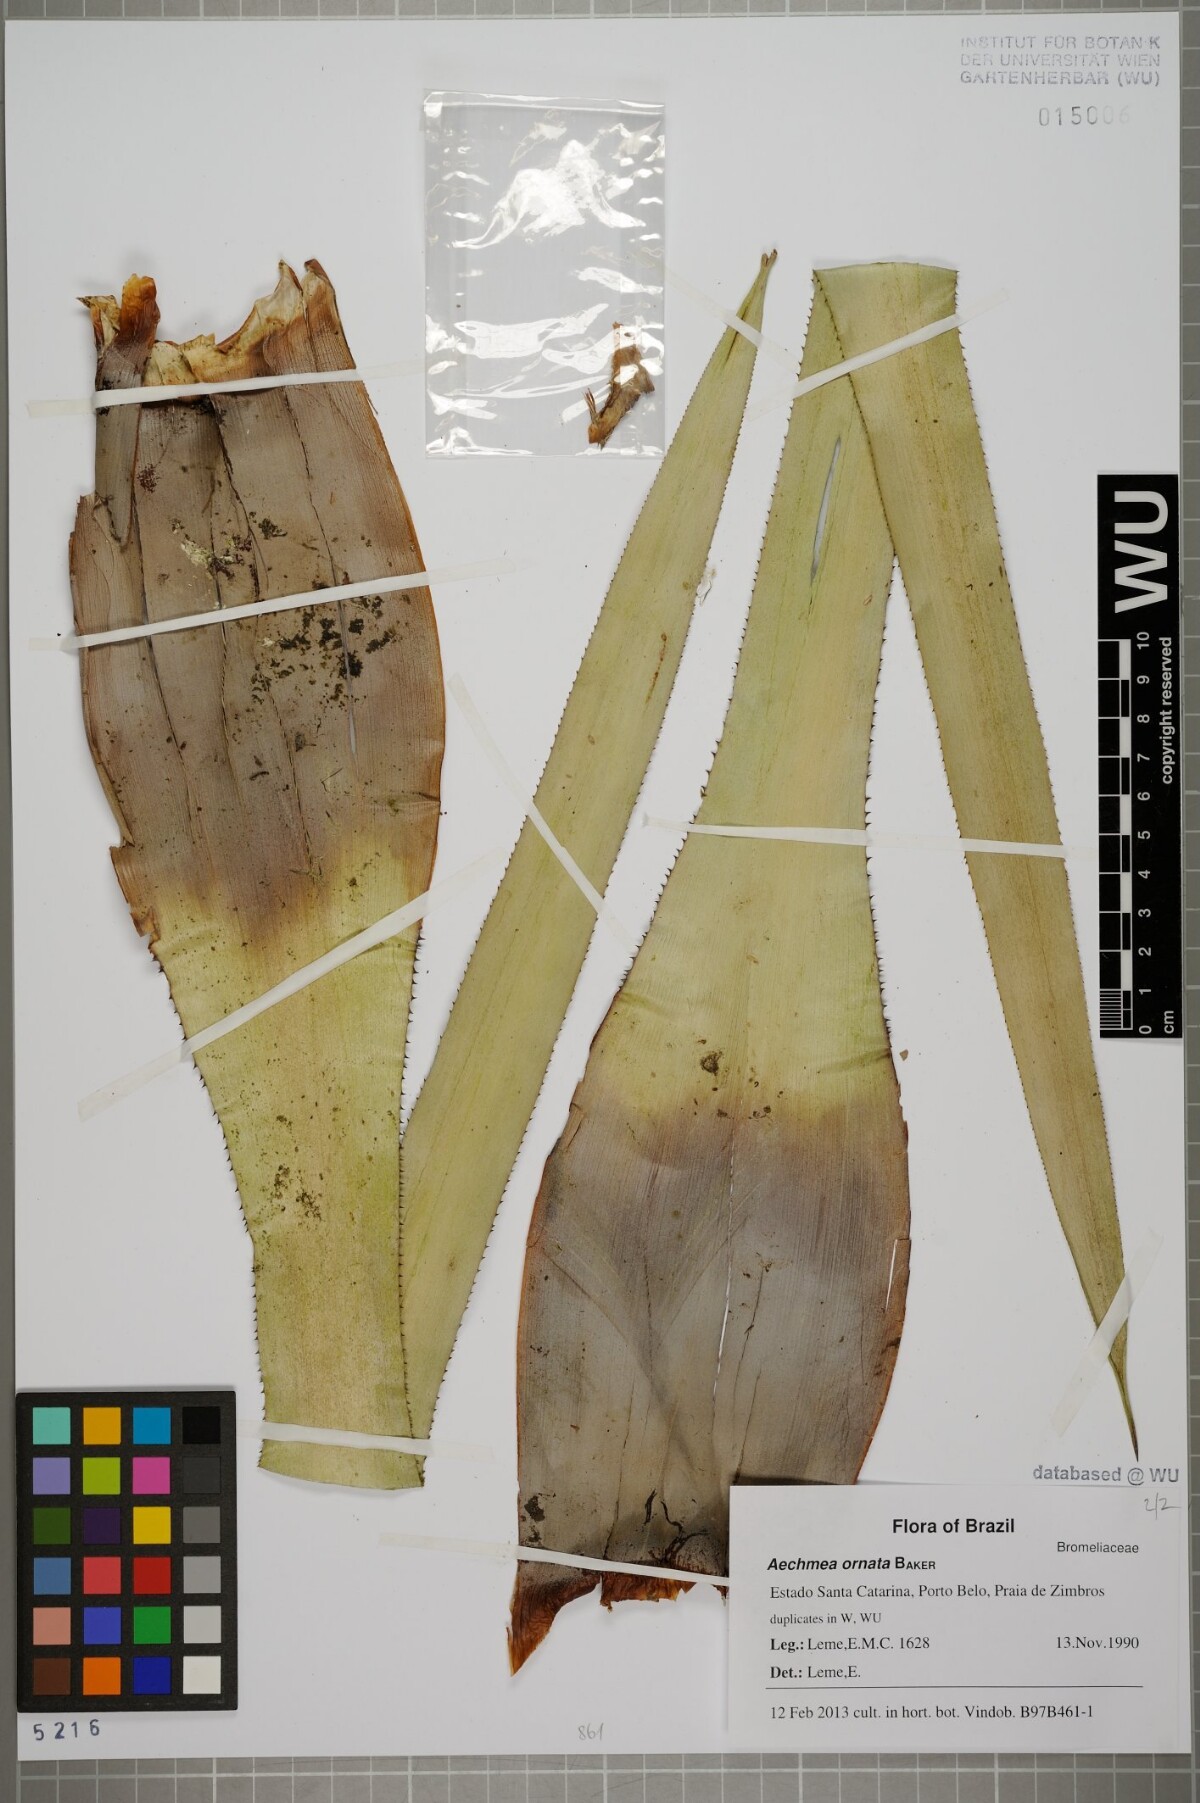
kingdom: Plantae
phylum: Tracheophyta
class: Liliopsida
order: Poales
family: Bromeliaceae
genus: Aechmea
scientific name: Aechmea ornata
